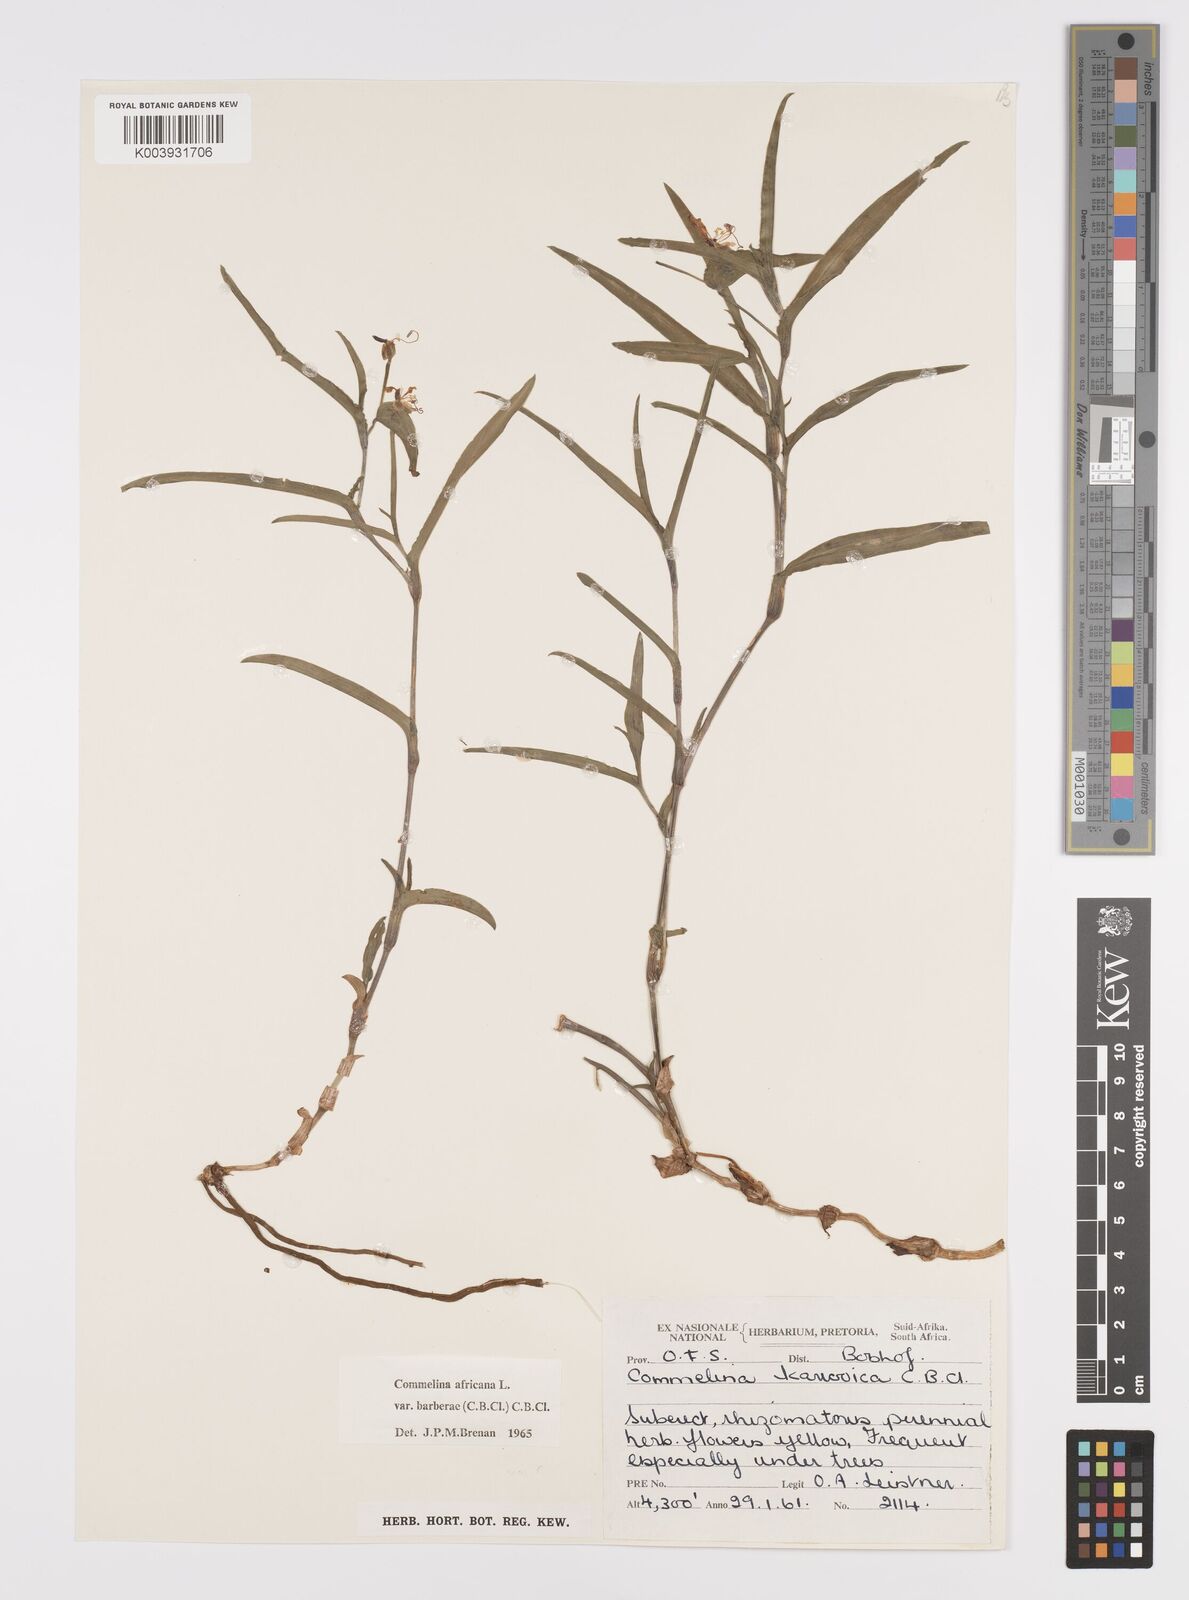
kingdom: Plantae
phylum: Tracheophyta
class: Liliopsida
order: Commelinales
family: Commelinaceae
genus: Commelina
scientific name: Commelina africana
